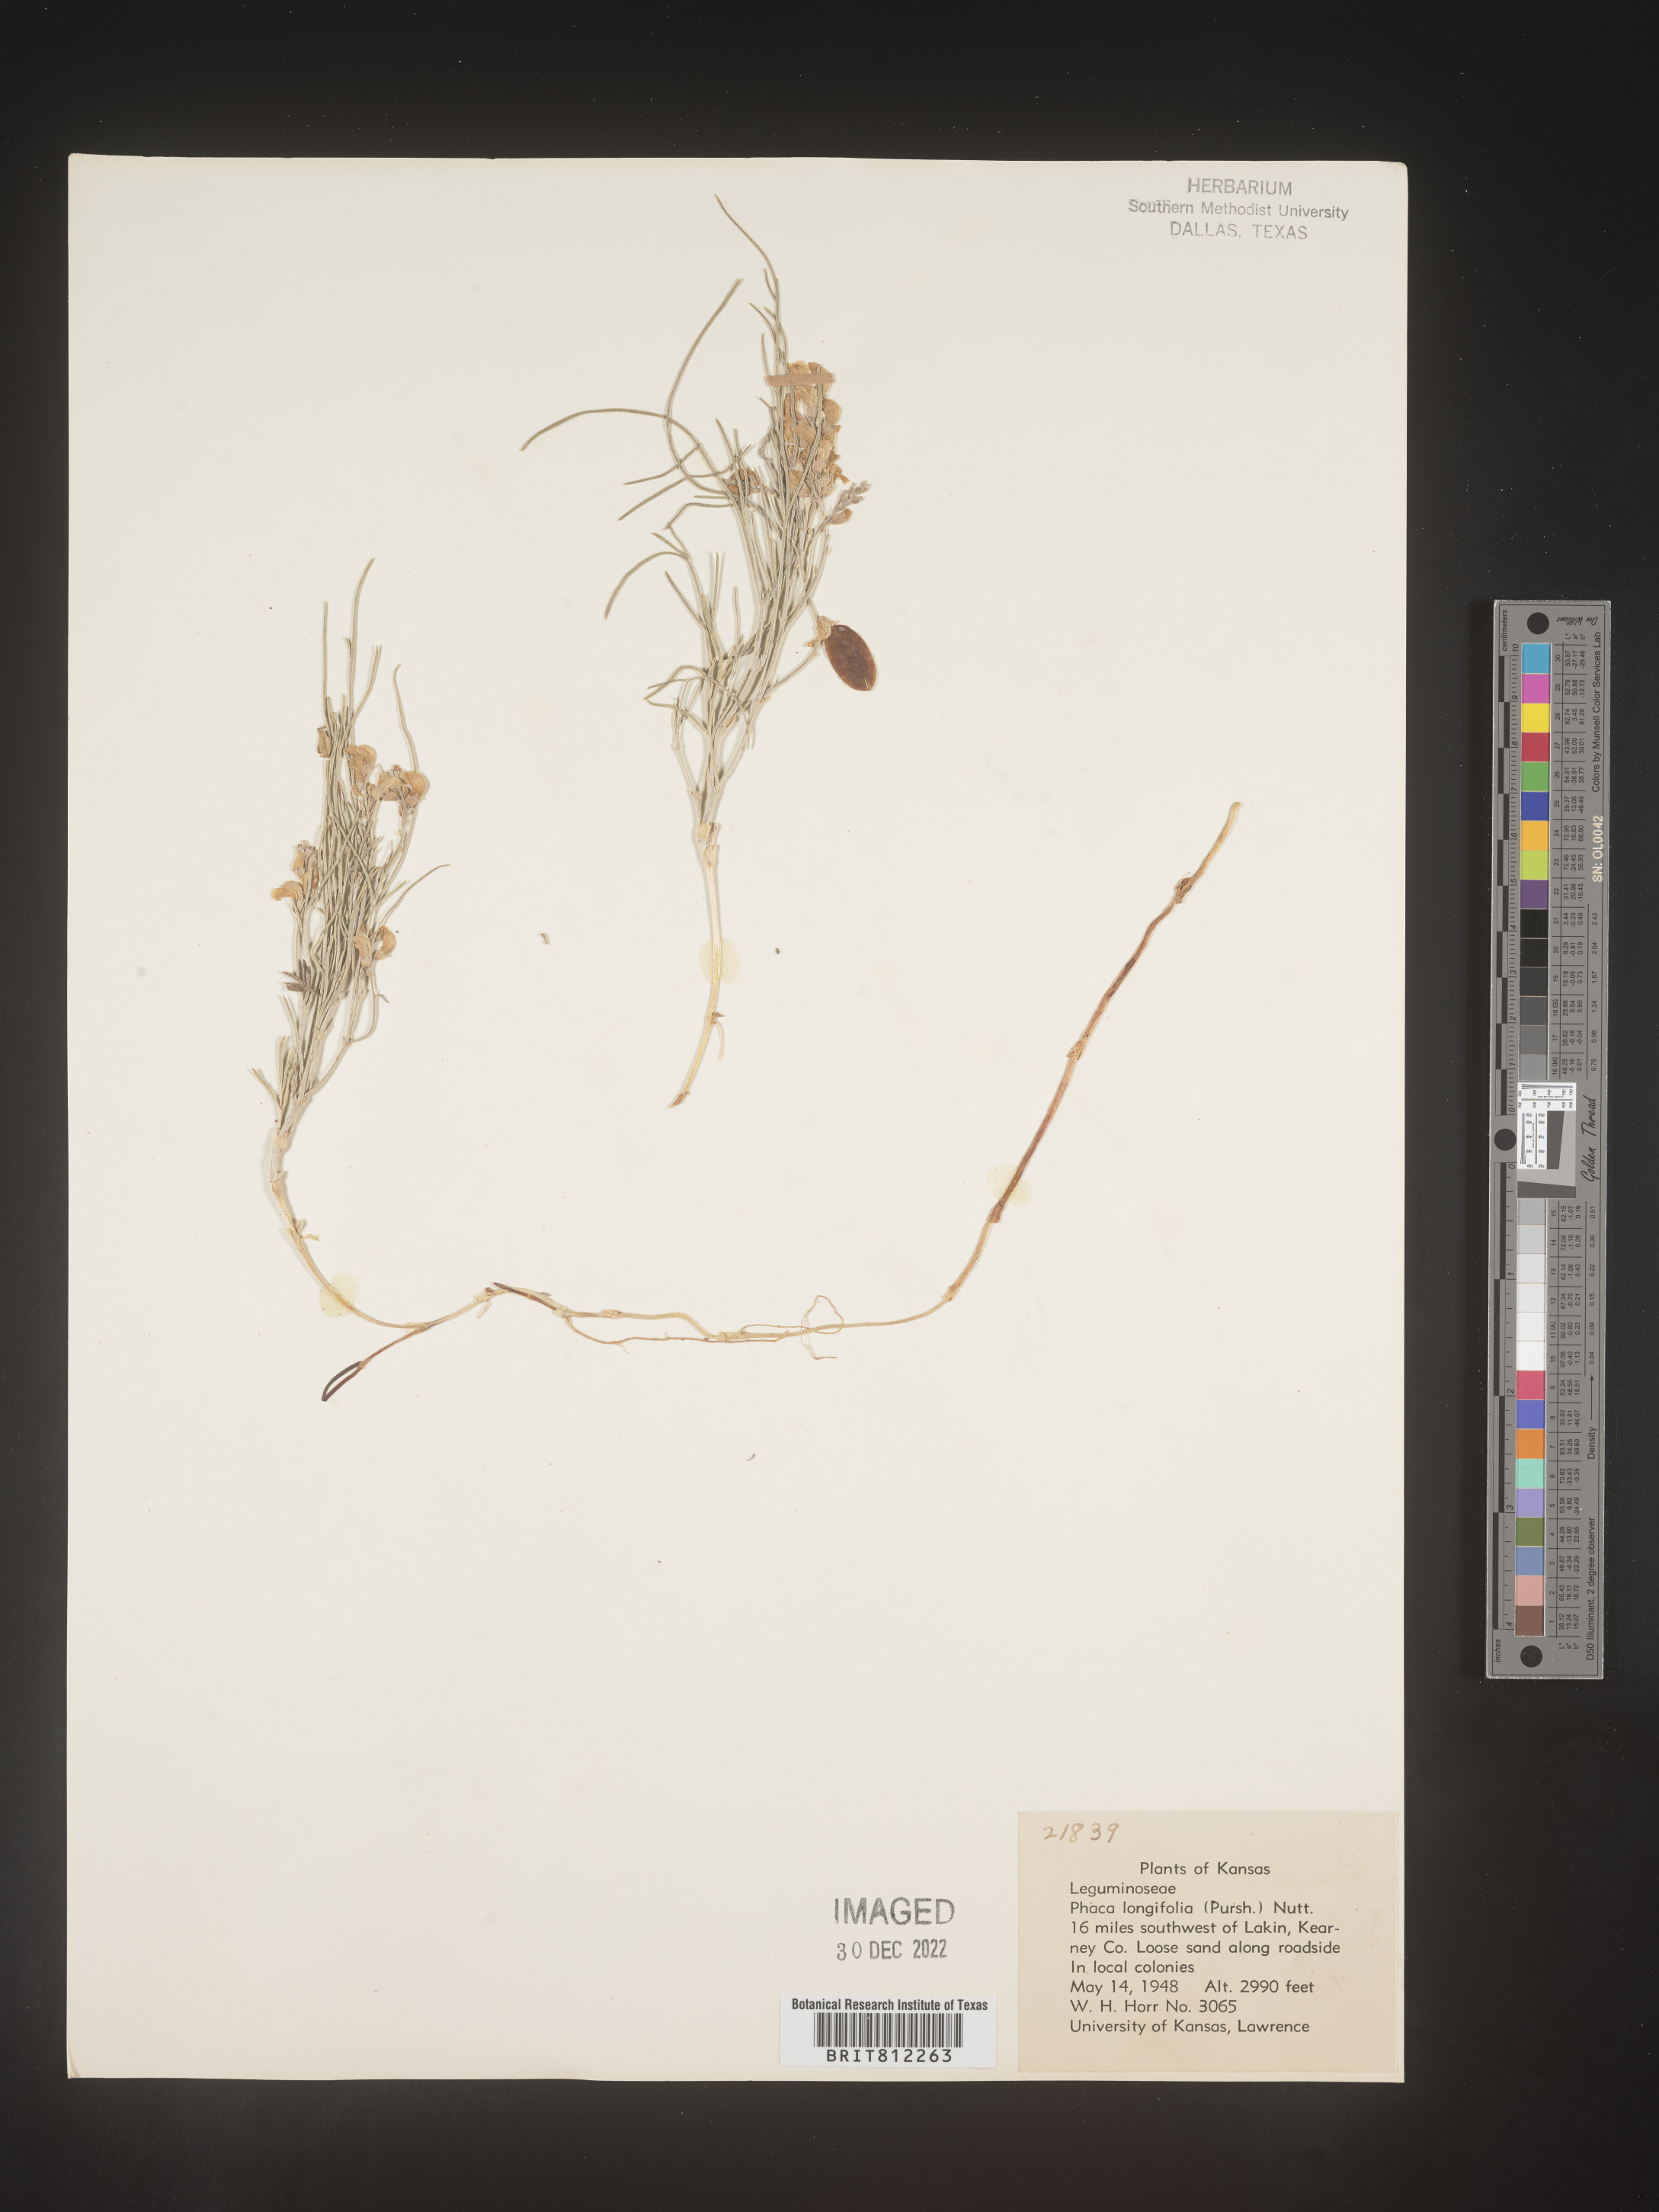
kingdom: Plantae
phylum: Tracheophyta
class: Magnoliopsida
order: Fabales
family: Fabaceae
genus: Astragalus
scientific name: Astragalus ceramicus
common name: Painted milk-vetch
